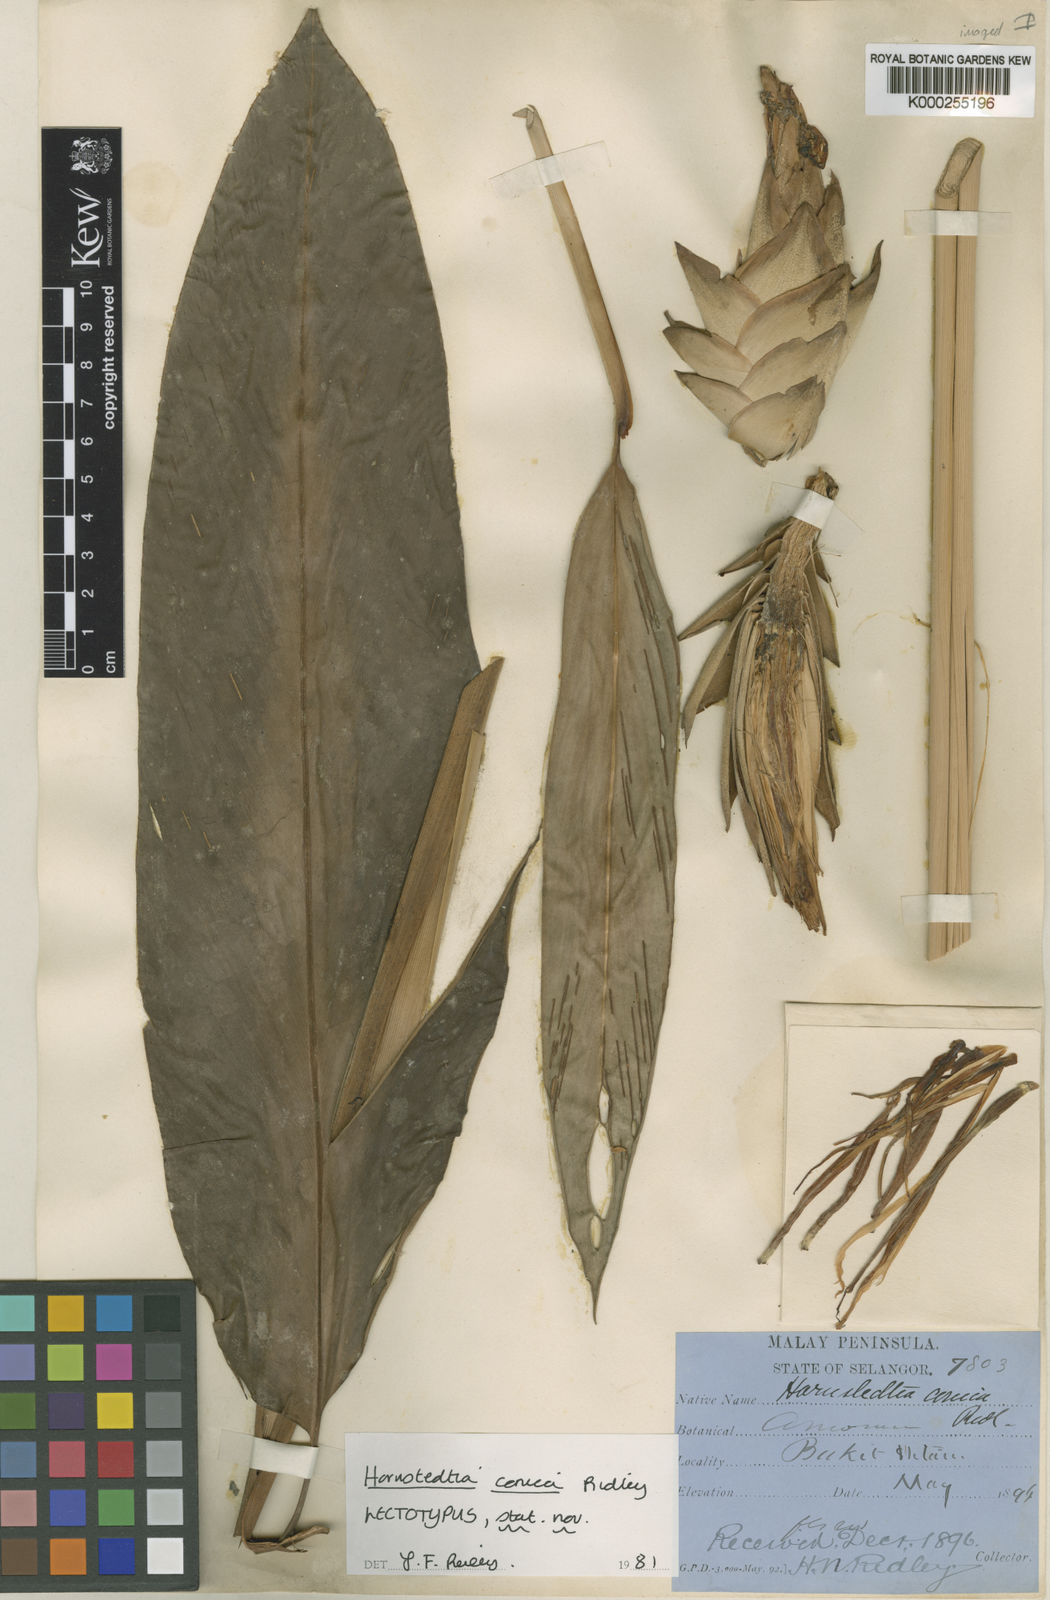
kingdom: Plantae
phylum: Tracheophyta
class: Liliopsida
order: Zingiberales
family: Zingiberaceae
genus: Hornstedtia
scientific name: Hornstedtia conica
